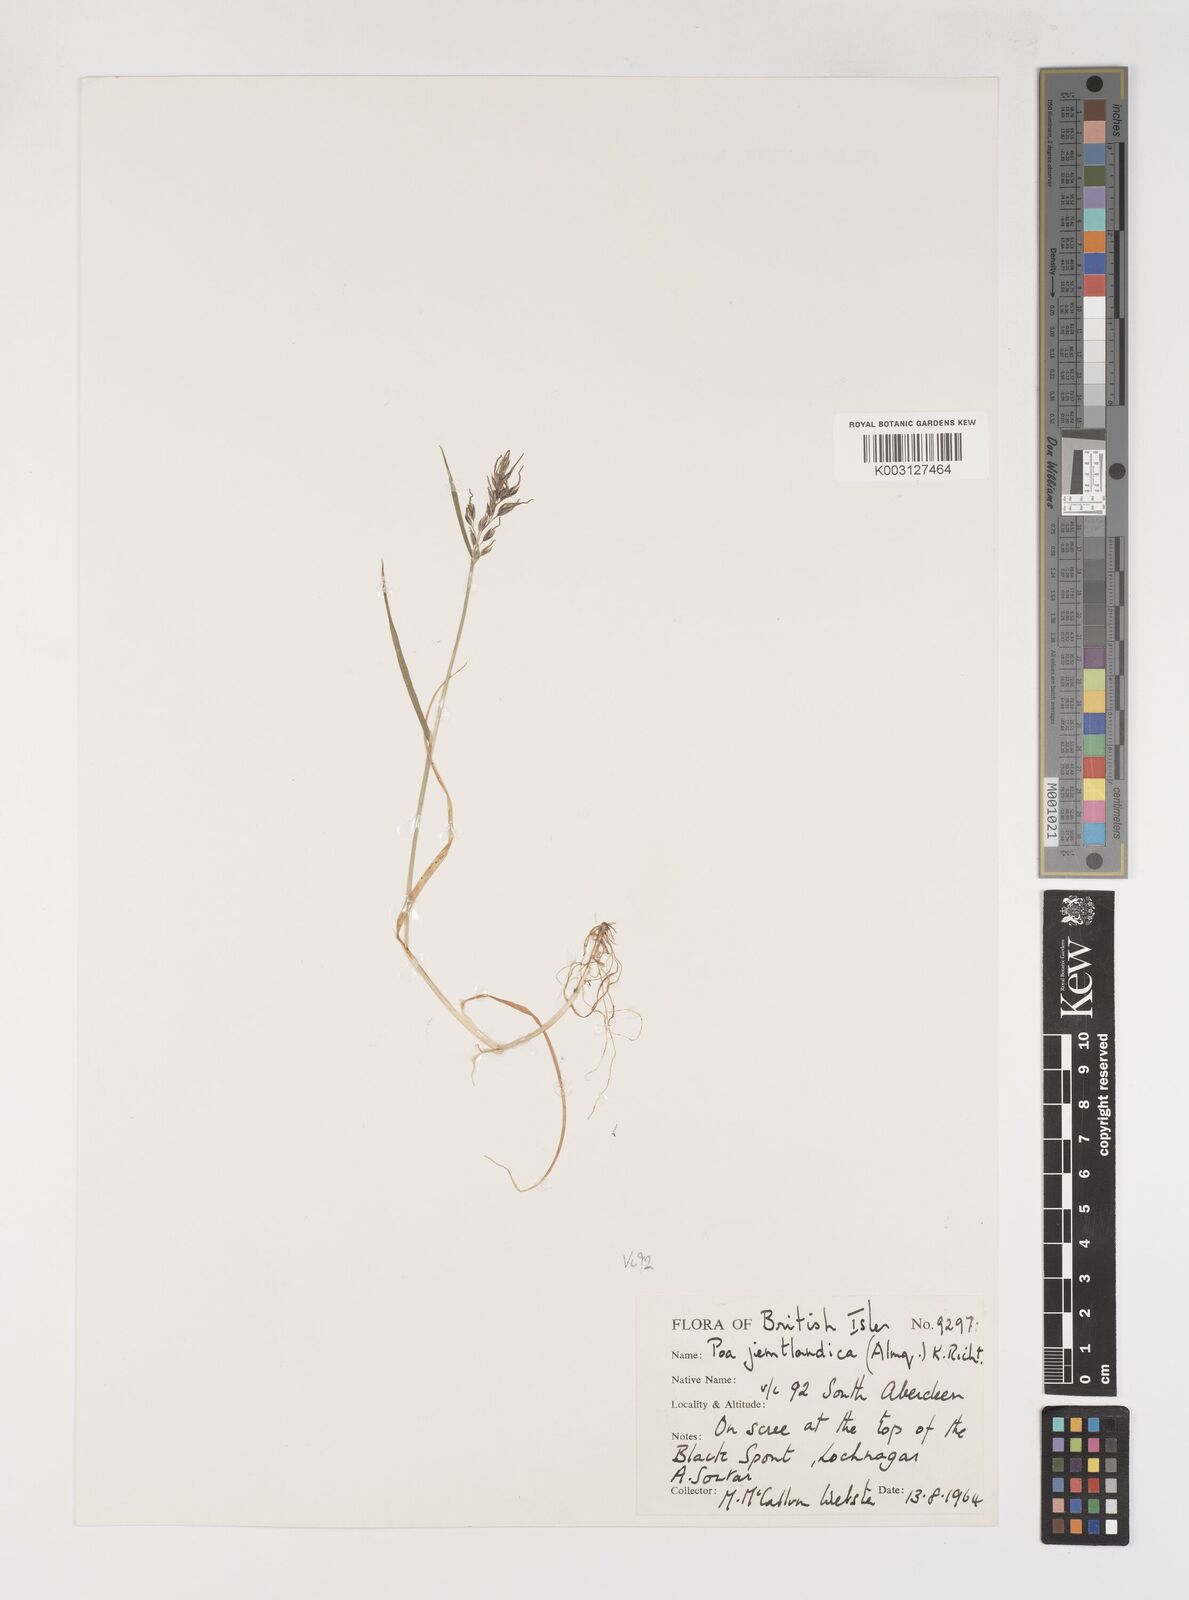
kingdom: Plantae
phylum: Tracheophyta
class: Liliopsida
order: Poales
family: Poaceae
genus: Poa
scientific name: Poa jemtlandica
